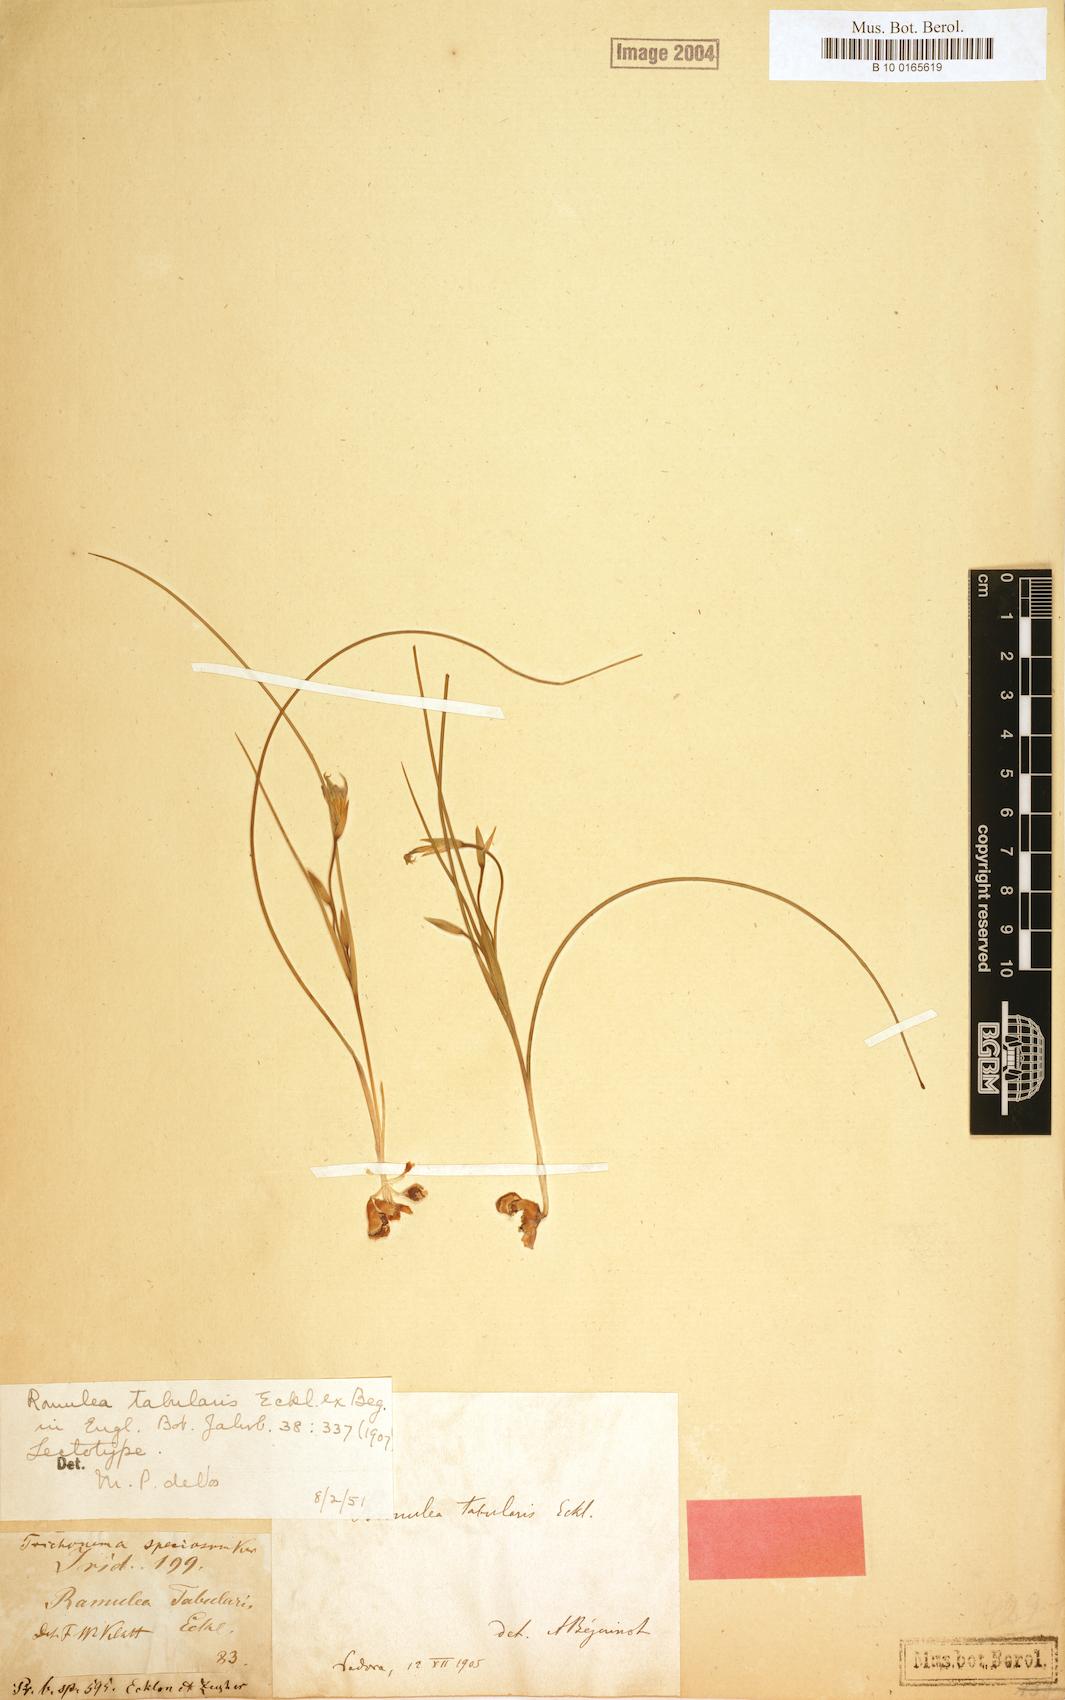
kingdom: Plantae
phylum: Tracheophyta
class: Liliopsida
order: Asparagales
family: Iridaceae
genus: Romulea
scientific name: Romulea tabularis
